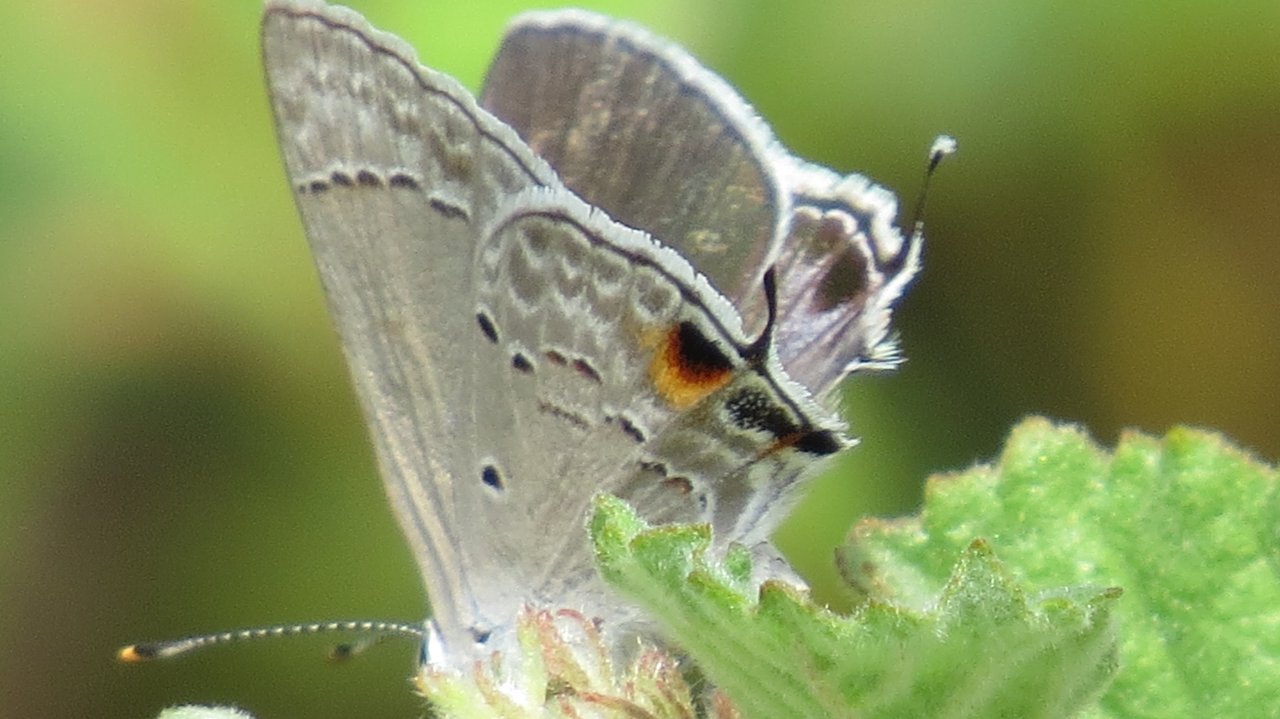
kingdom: Animalia
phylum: Arthropoda
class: Insecta
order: Lepidoptera
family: Lycaenidae
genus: Callicista
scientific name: Callicista columella
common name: Mallow Scrub-Hairstreak
